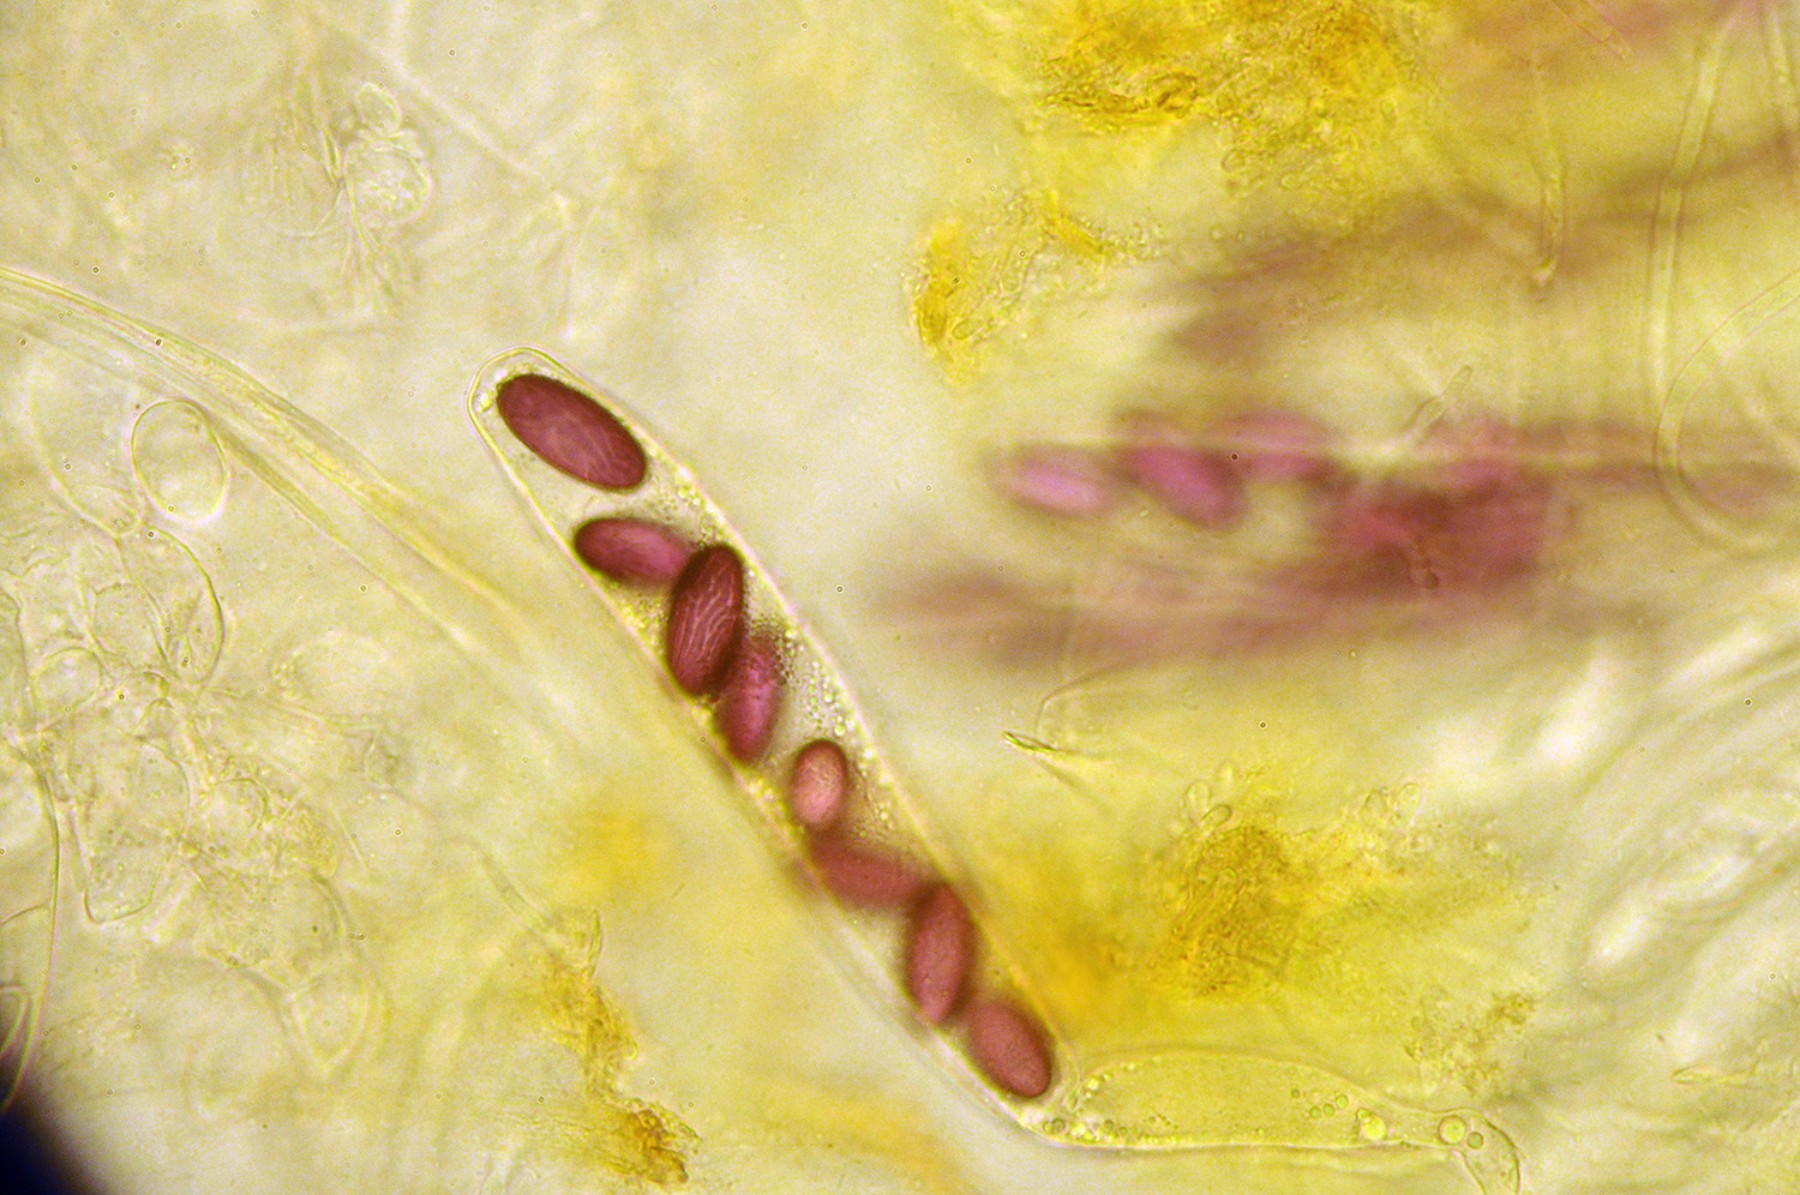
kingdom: Fungi
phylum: Ascomycota
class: Pezizomycetes
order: Pezizales
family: Ascobolaceae
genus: Ascobolus
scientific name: Ascobolus furfuraceus
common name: almindelig prikbæger
